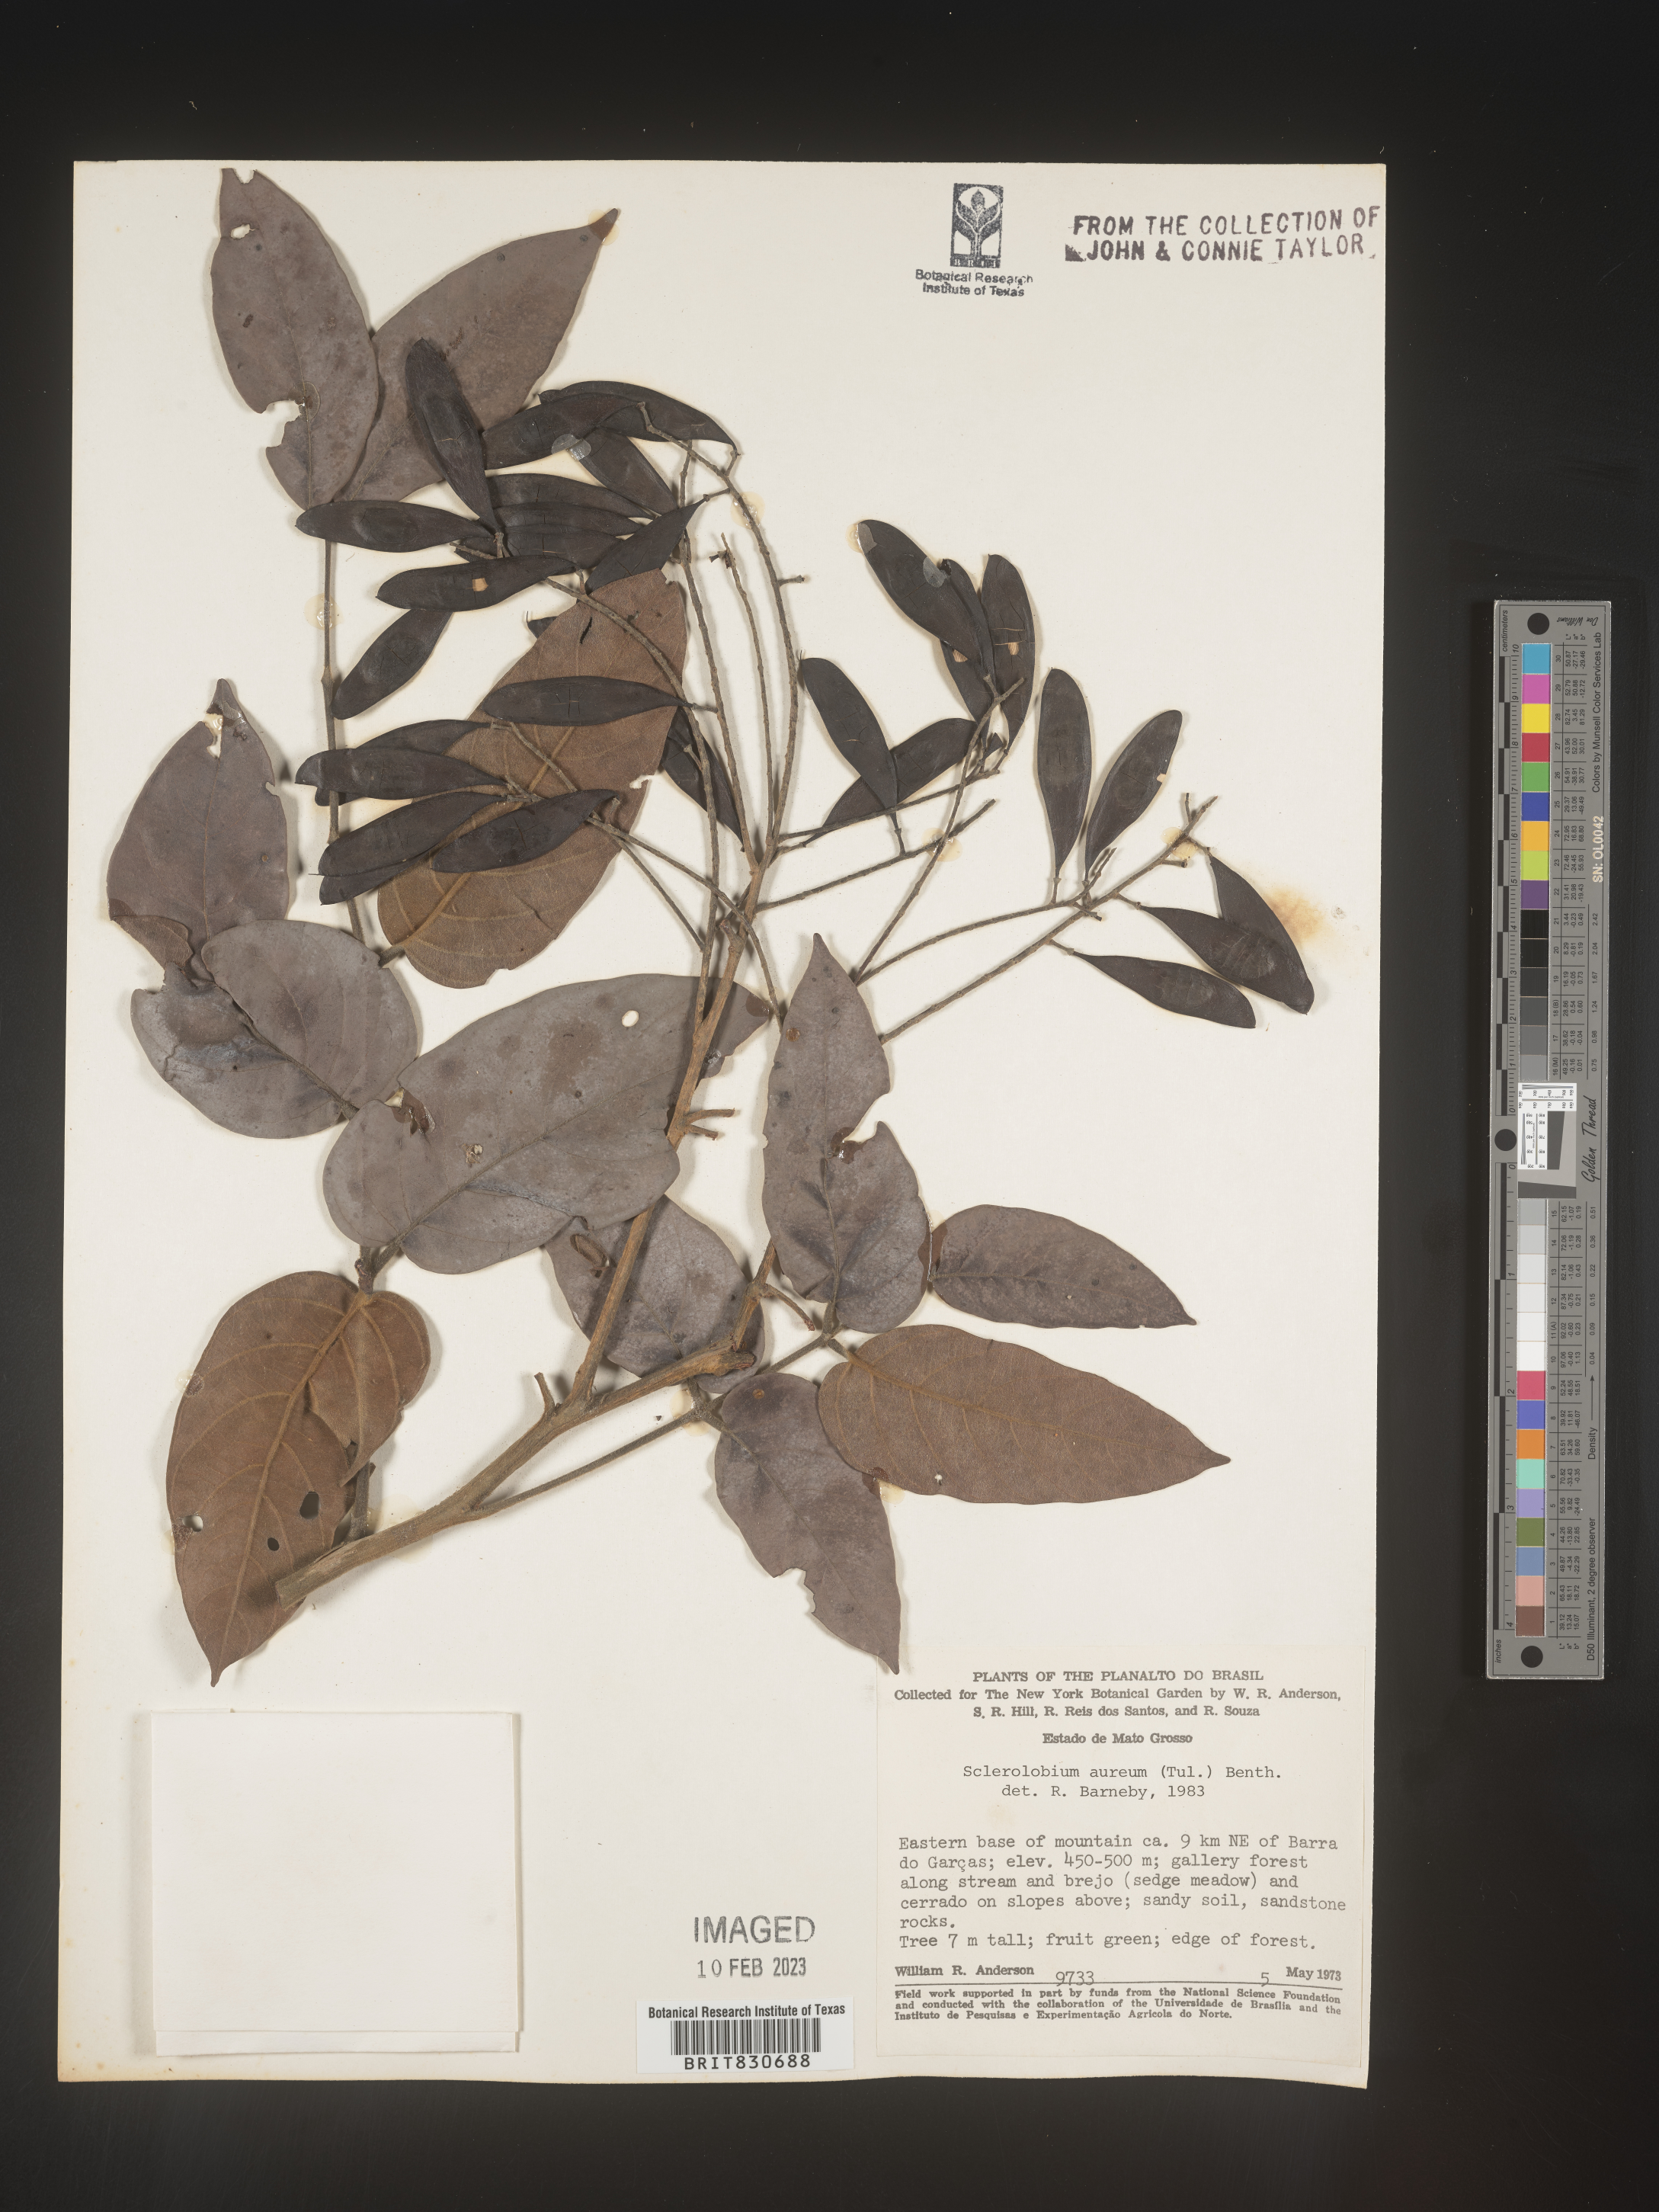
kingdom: Plantae
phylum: Tracheophyta
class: Magnoliopsida
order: Fabales
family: Fabaceae
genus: Tachigali
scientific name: Tachigali
